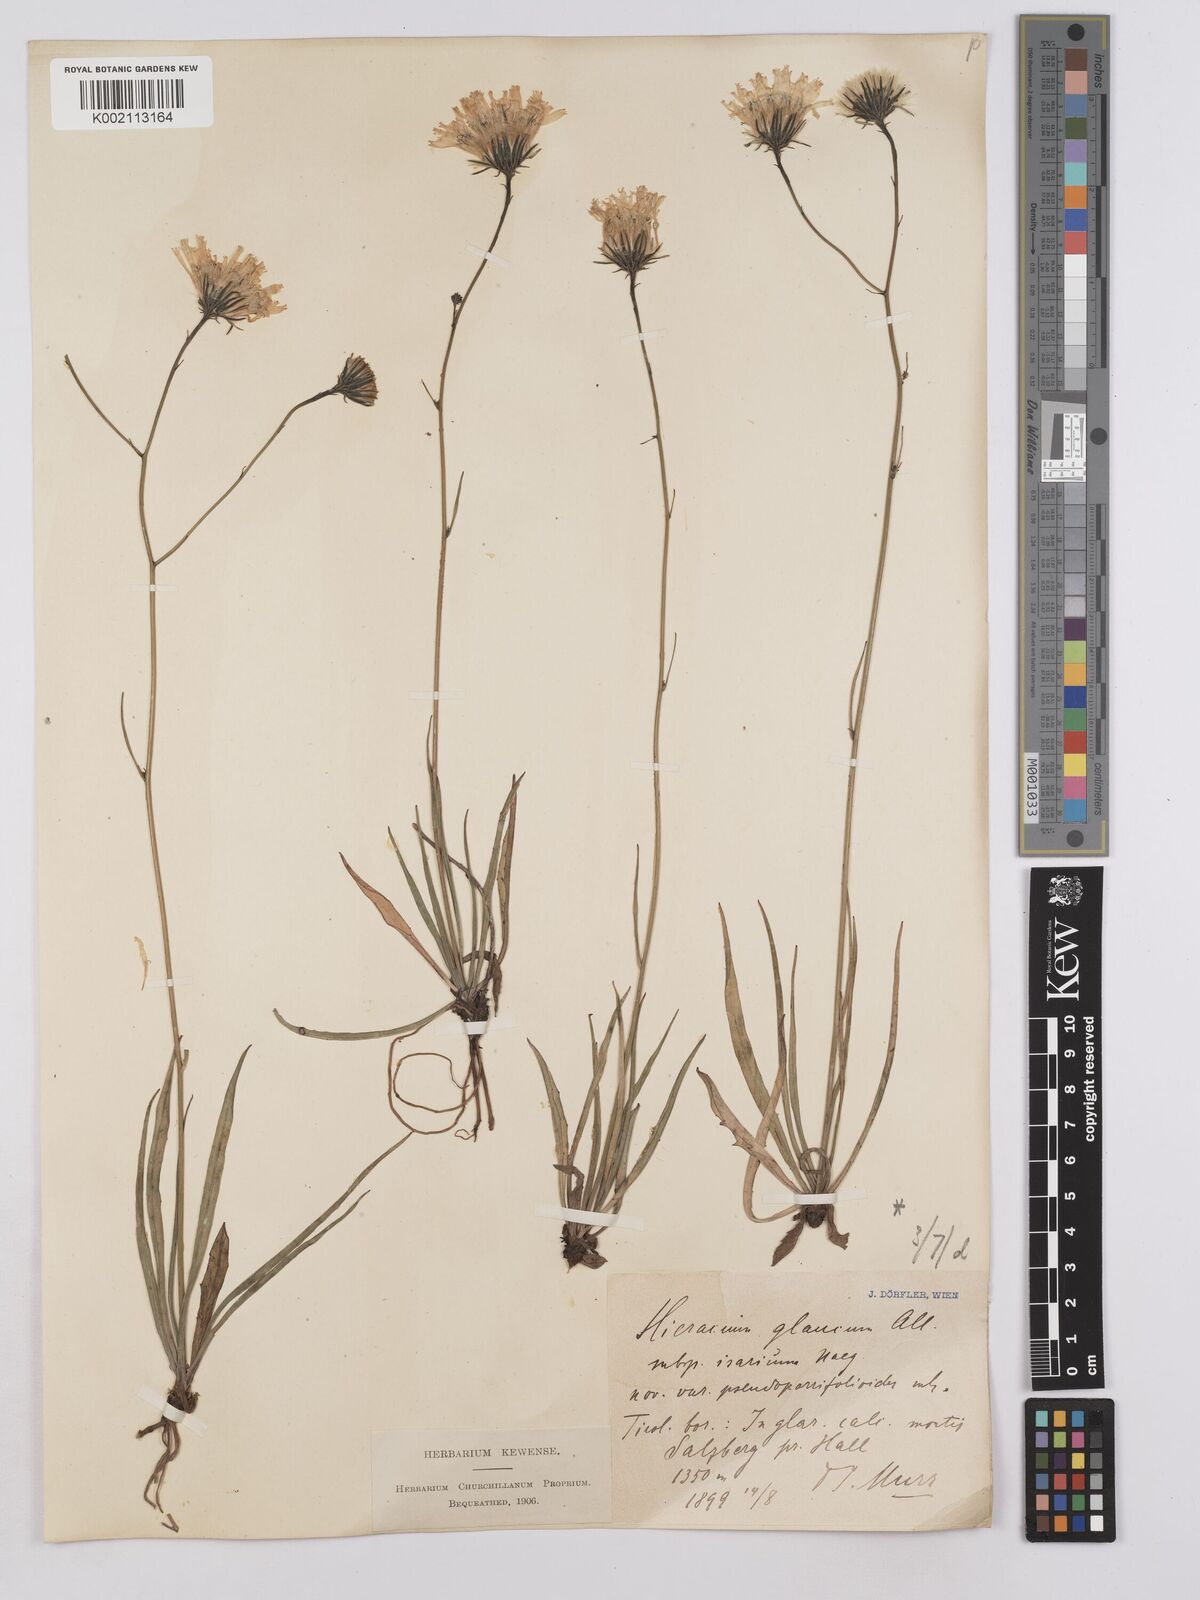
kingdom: Plantae
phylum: Tracheophyta
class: Magnoliopsida
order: Asterales
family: Asteraceae
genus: Hieracium
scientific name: Hieracium glaucum
